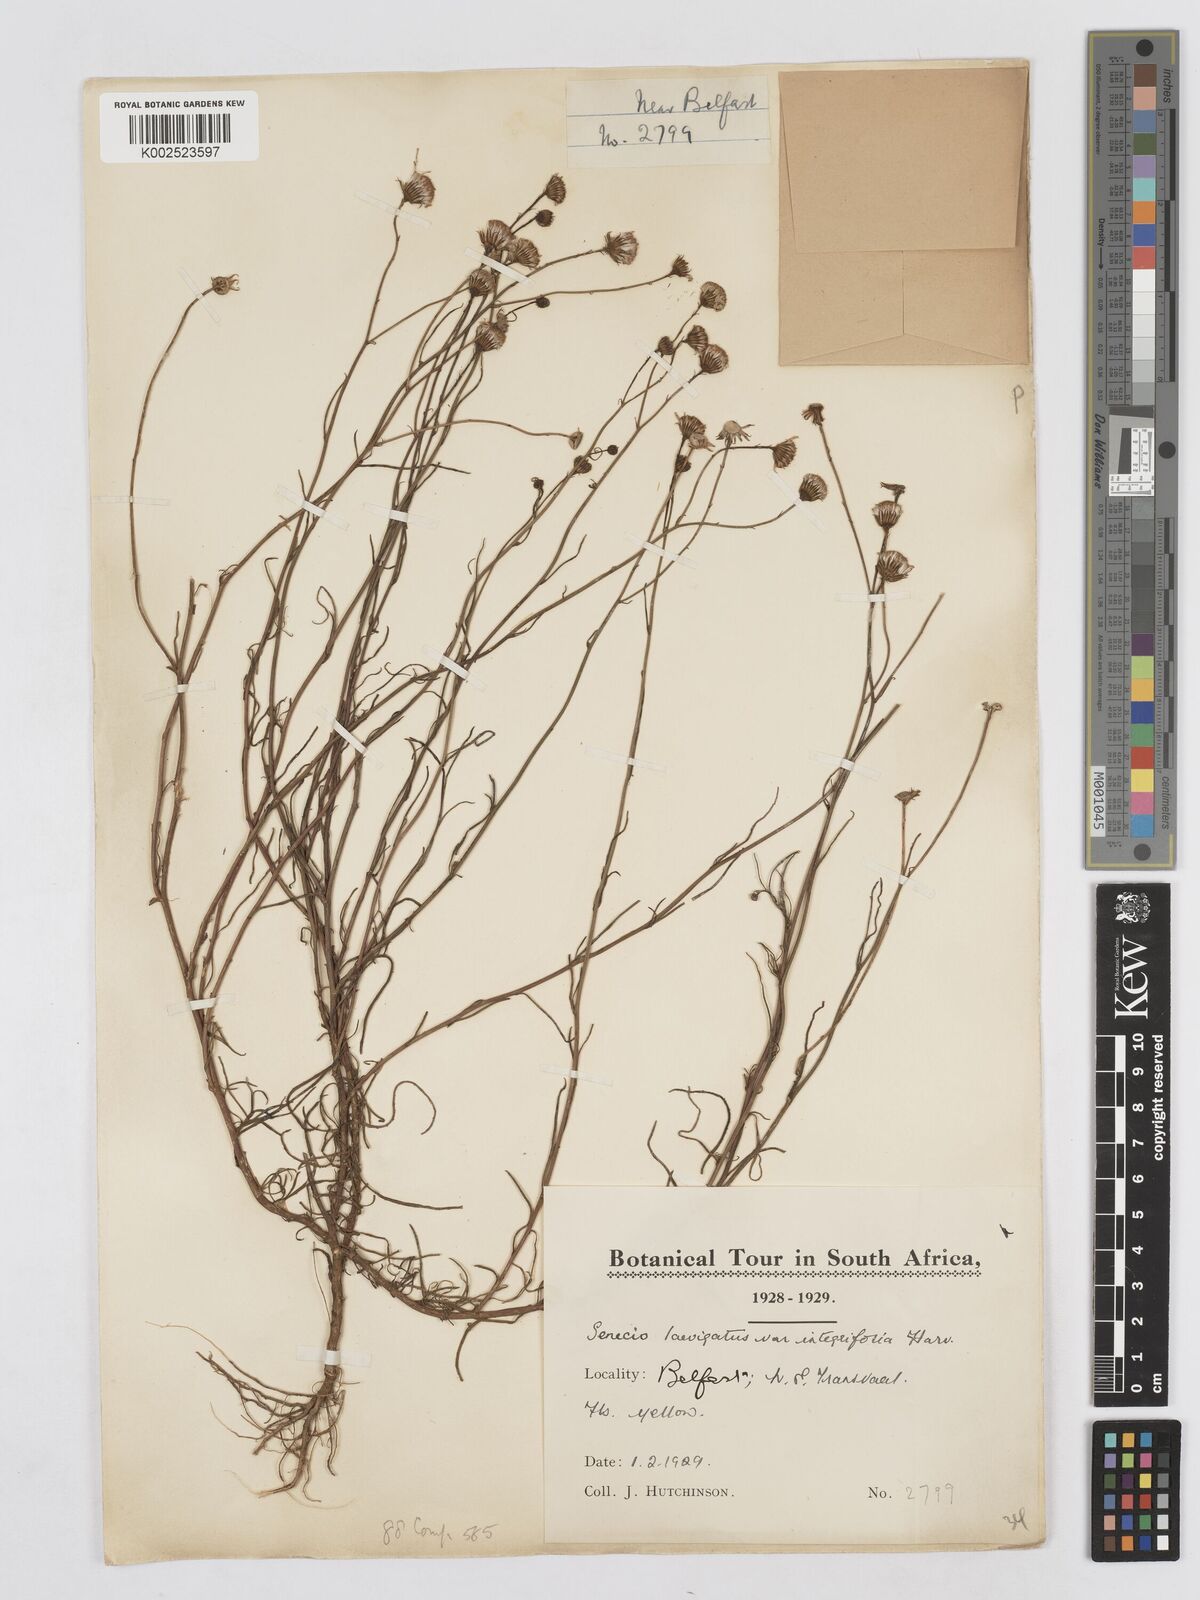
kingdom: Plantae
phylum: Tracheophyta
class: Magnoliopsida
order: Asterales
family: Asteraceae
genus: Senecio
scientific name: Senecio inaequidens
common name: Narrow-leaved ragwort
